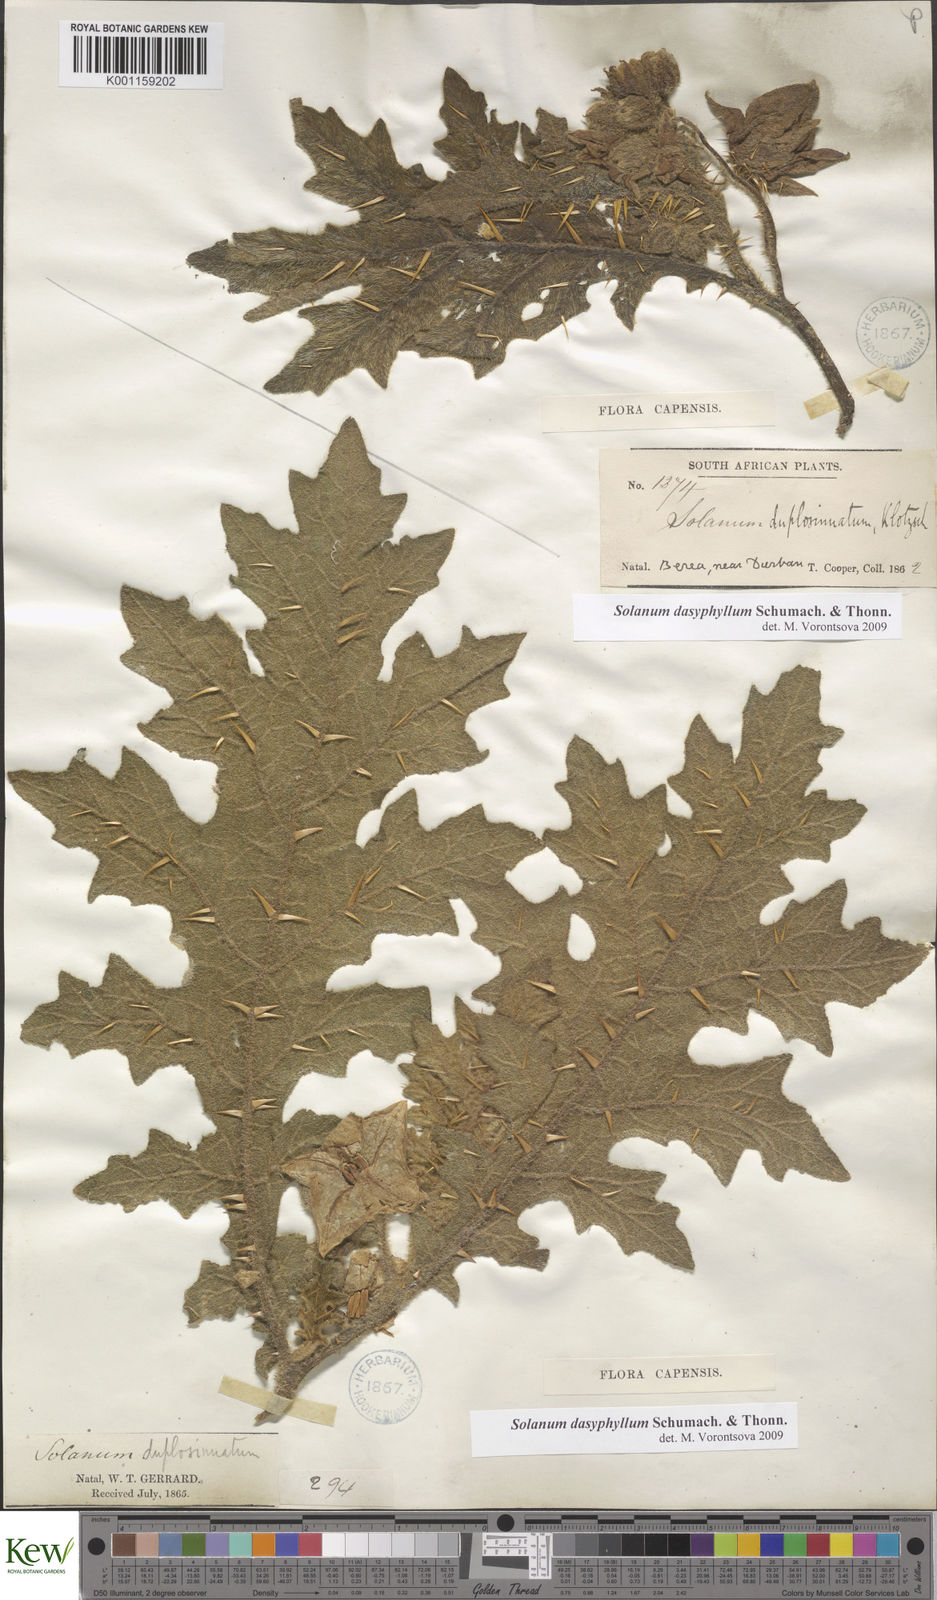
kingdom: Plantae
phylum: Tracheophyta
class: Magnoliopsida
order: Solanales
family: Solanaceae
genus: Solanum
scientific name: Solanum dasyphyllum
